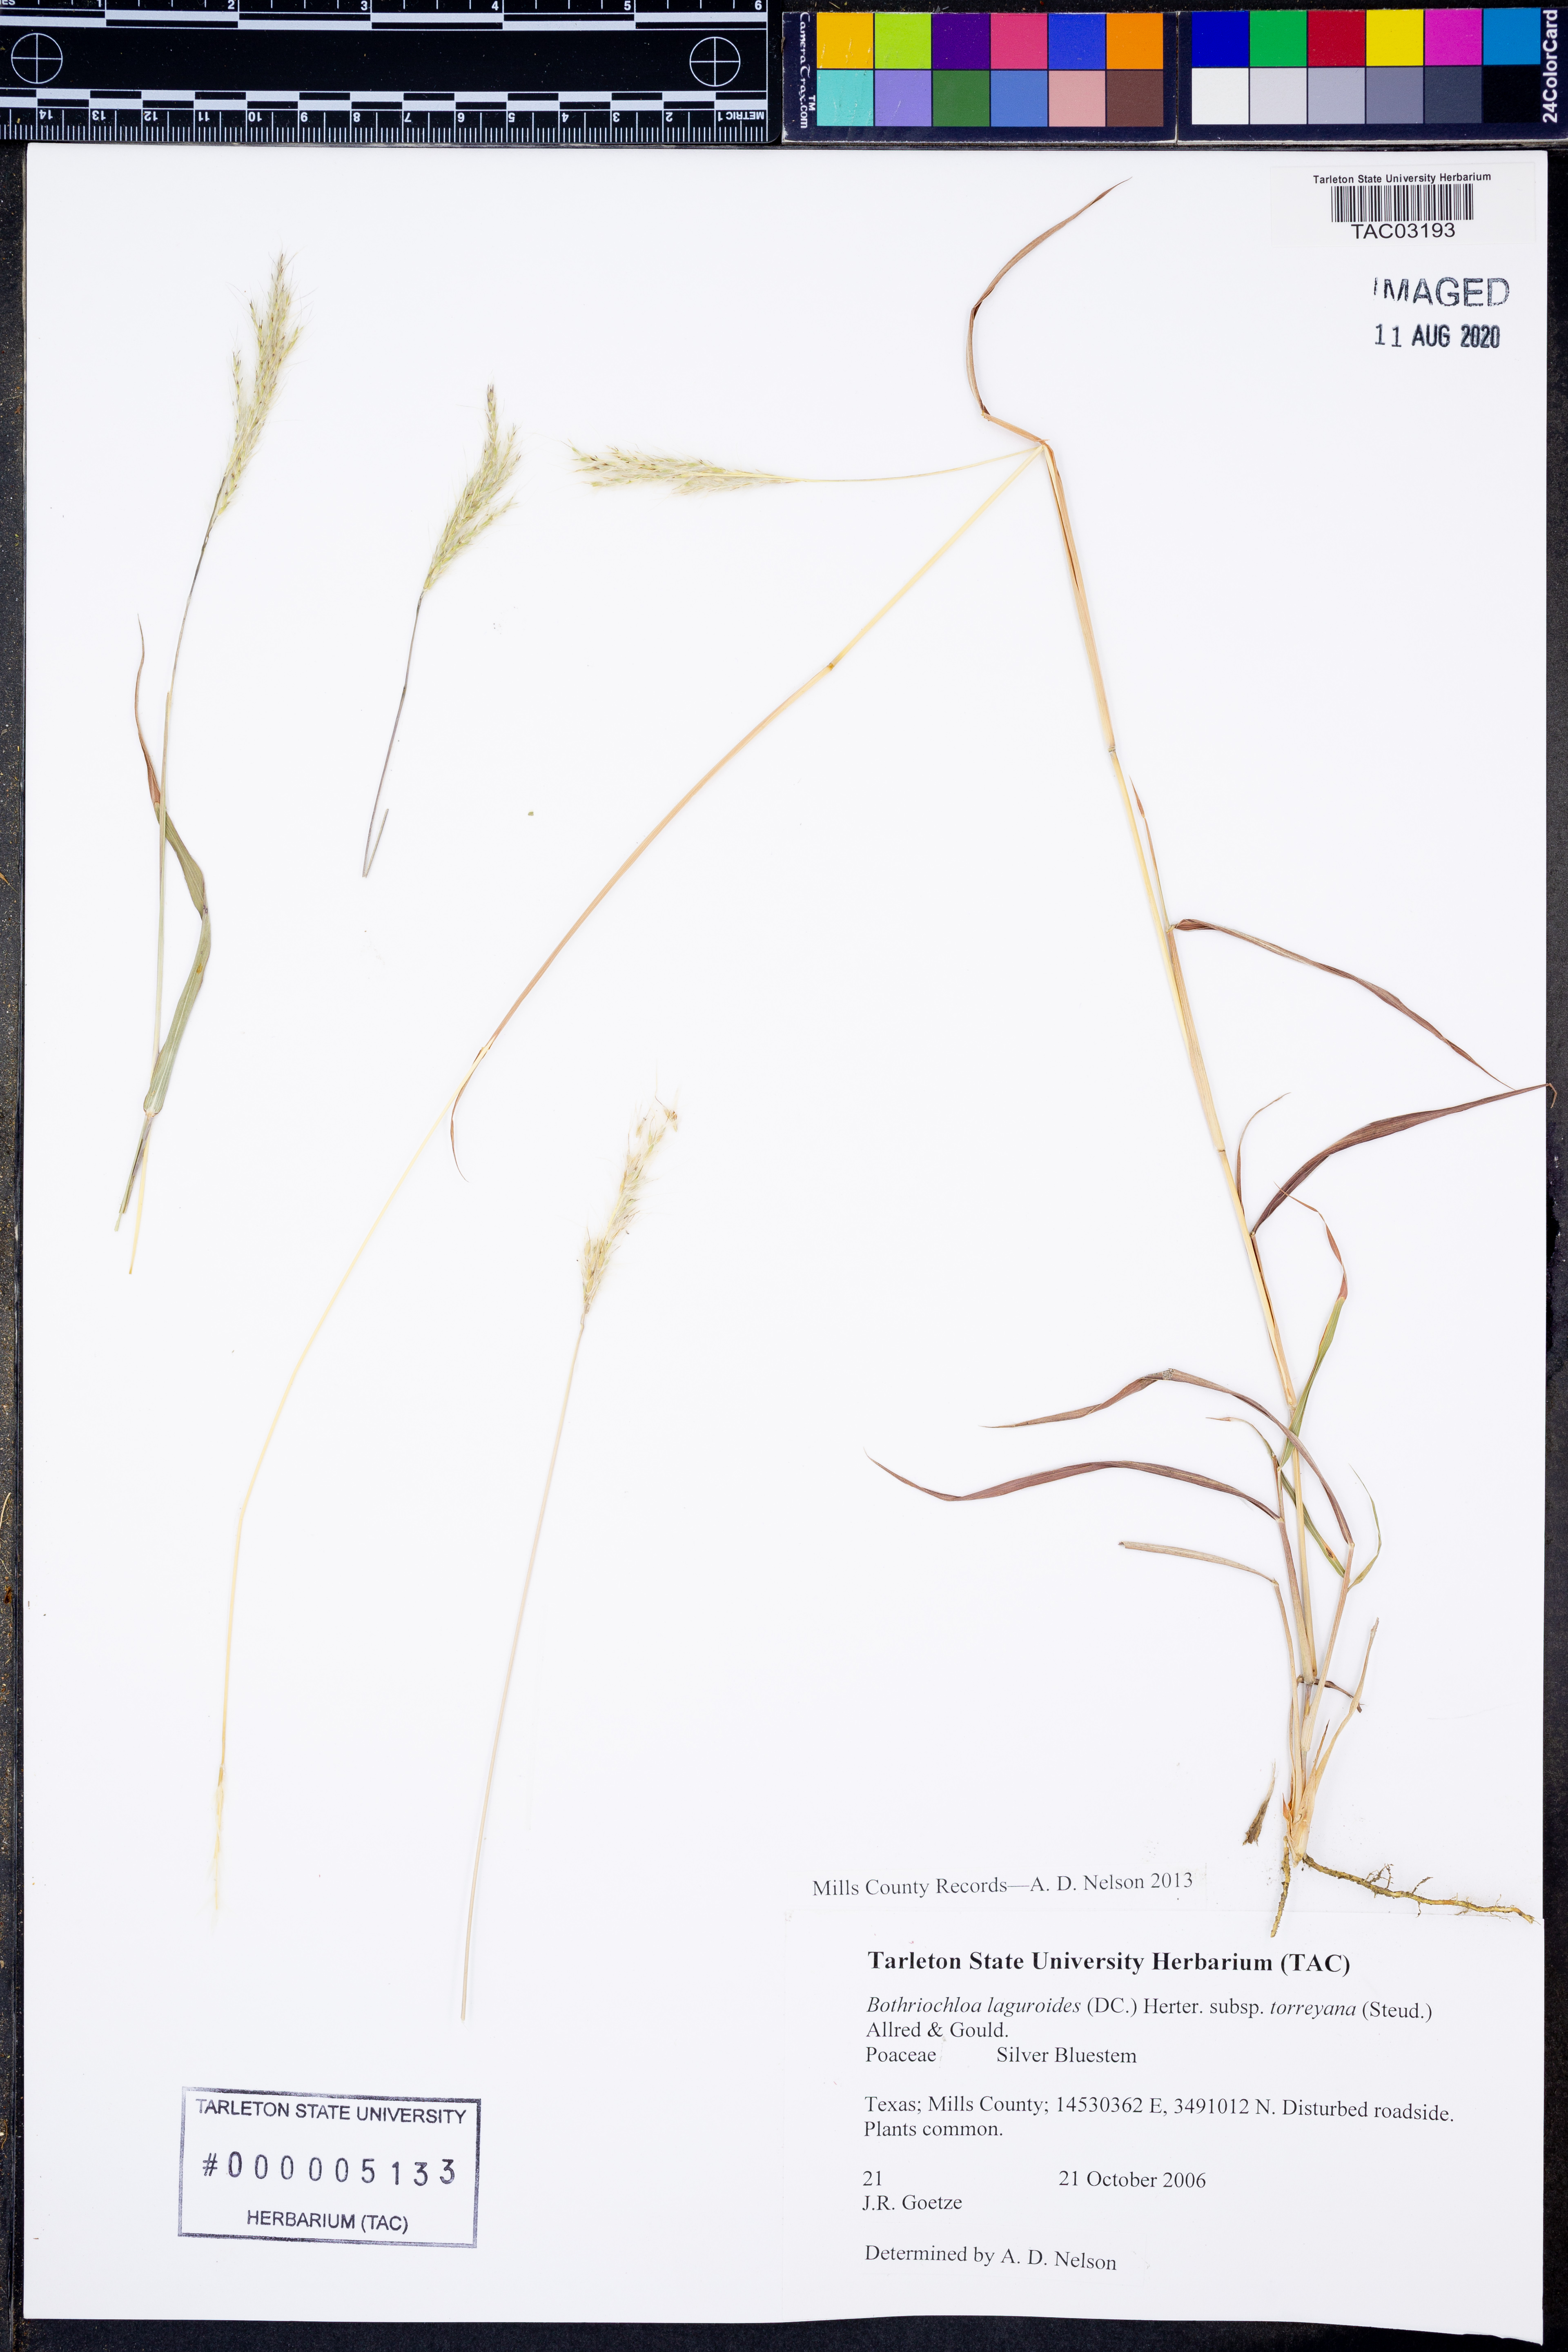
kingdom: Plantae
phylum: Tracheophyta
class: Liliopsida
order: Poales
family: Poaceae
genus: Bothriochloa
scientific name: Bothriochloa torreyana
